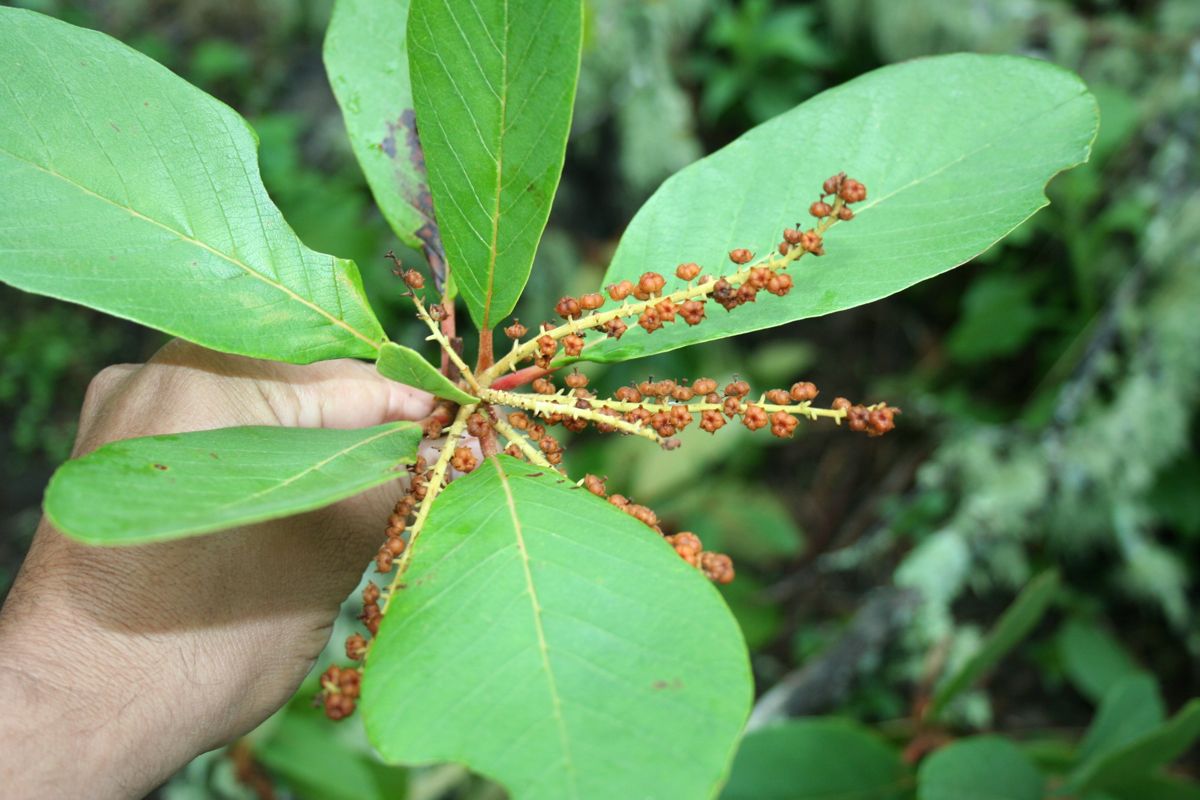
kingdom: Plantae
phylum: Tracheophyta
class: Magnoliopsida
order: Ericales
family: Clethraceae
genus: Clethra
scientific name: Clethra mexicana
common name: Nance macho
